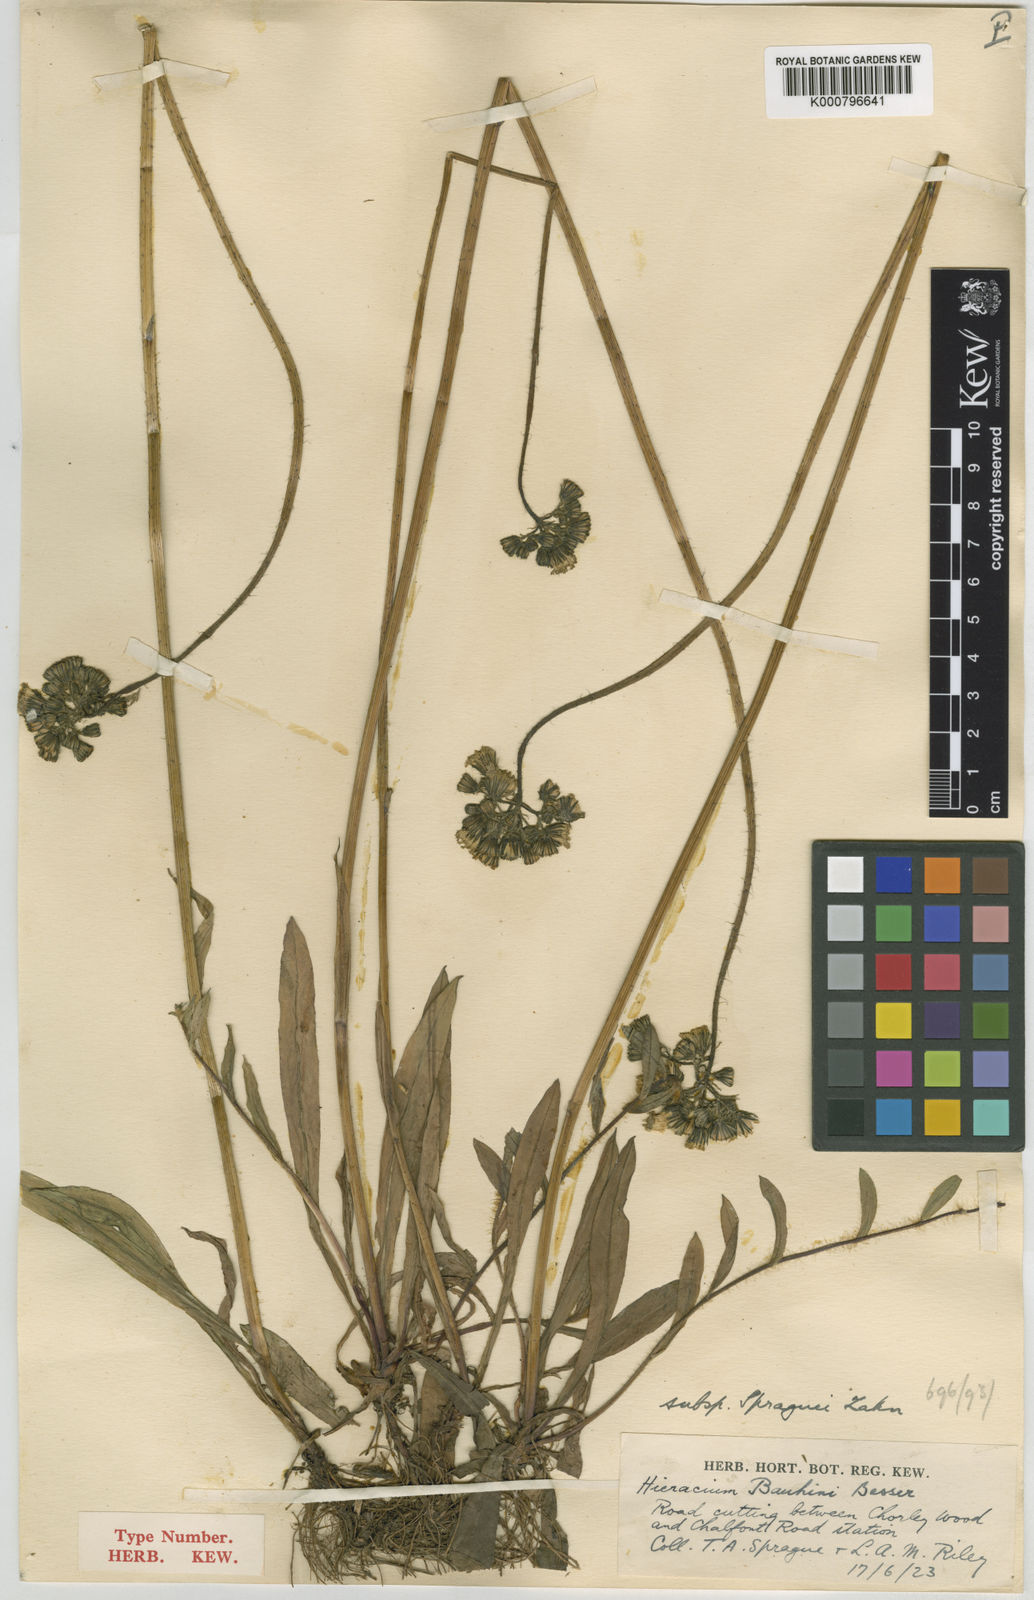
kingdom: Plantae
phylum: Tracheophyta
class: Magnoliopsida
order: Asterales
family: Asteraceae
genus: Pilosella
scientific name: Pilosella bauhini
